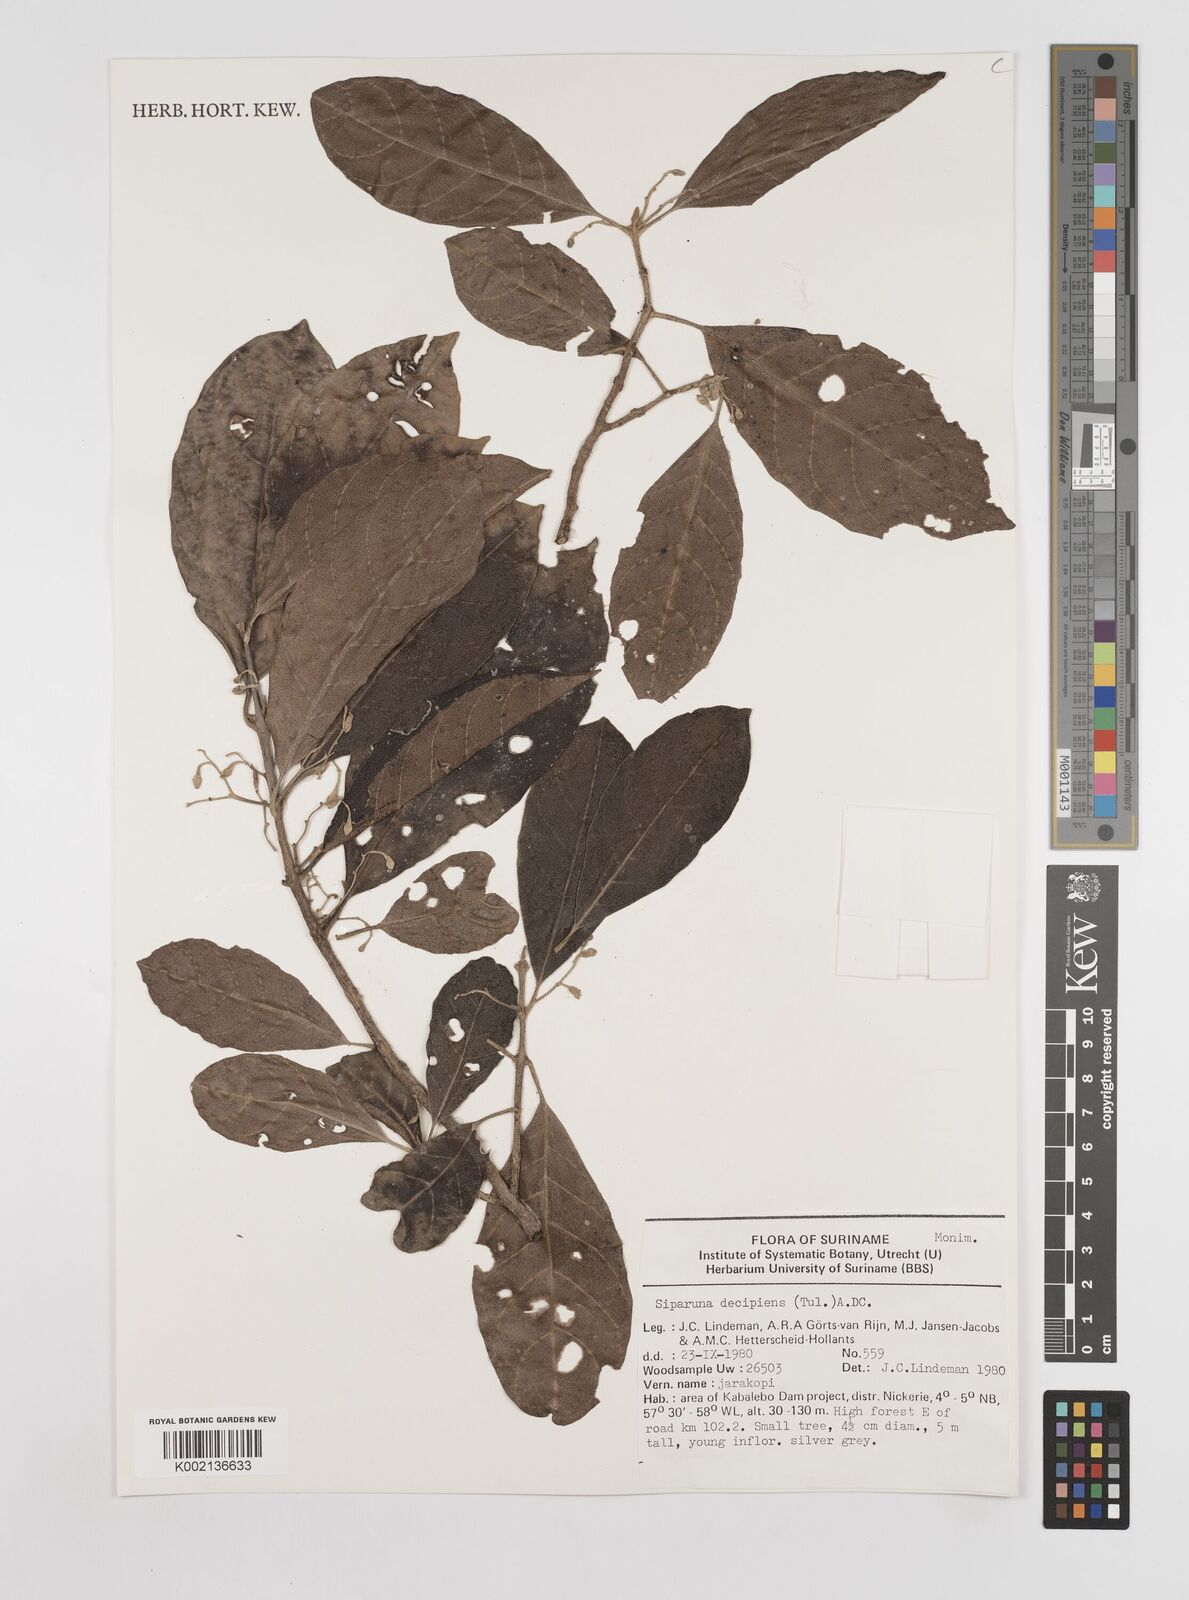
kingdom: Plantae
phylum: Tracheophyta
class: Magnoliopsida
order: Laurales
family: Siparunaceae
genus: Siparuna
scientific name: Siparuna decipiens
